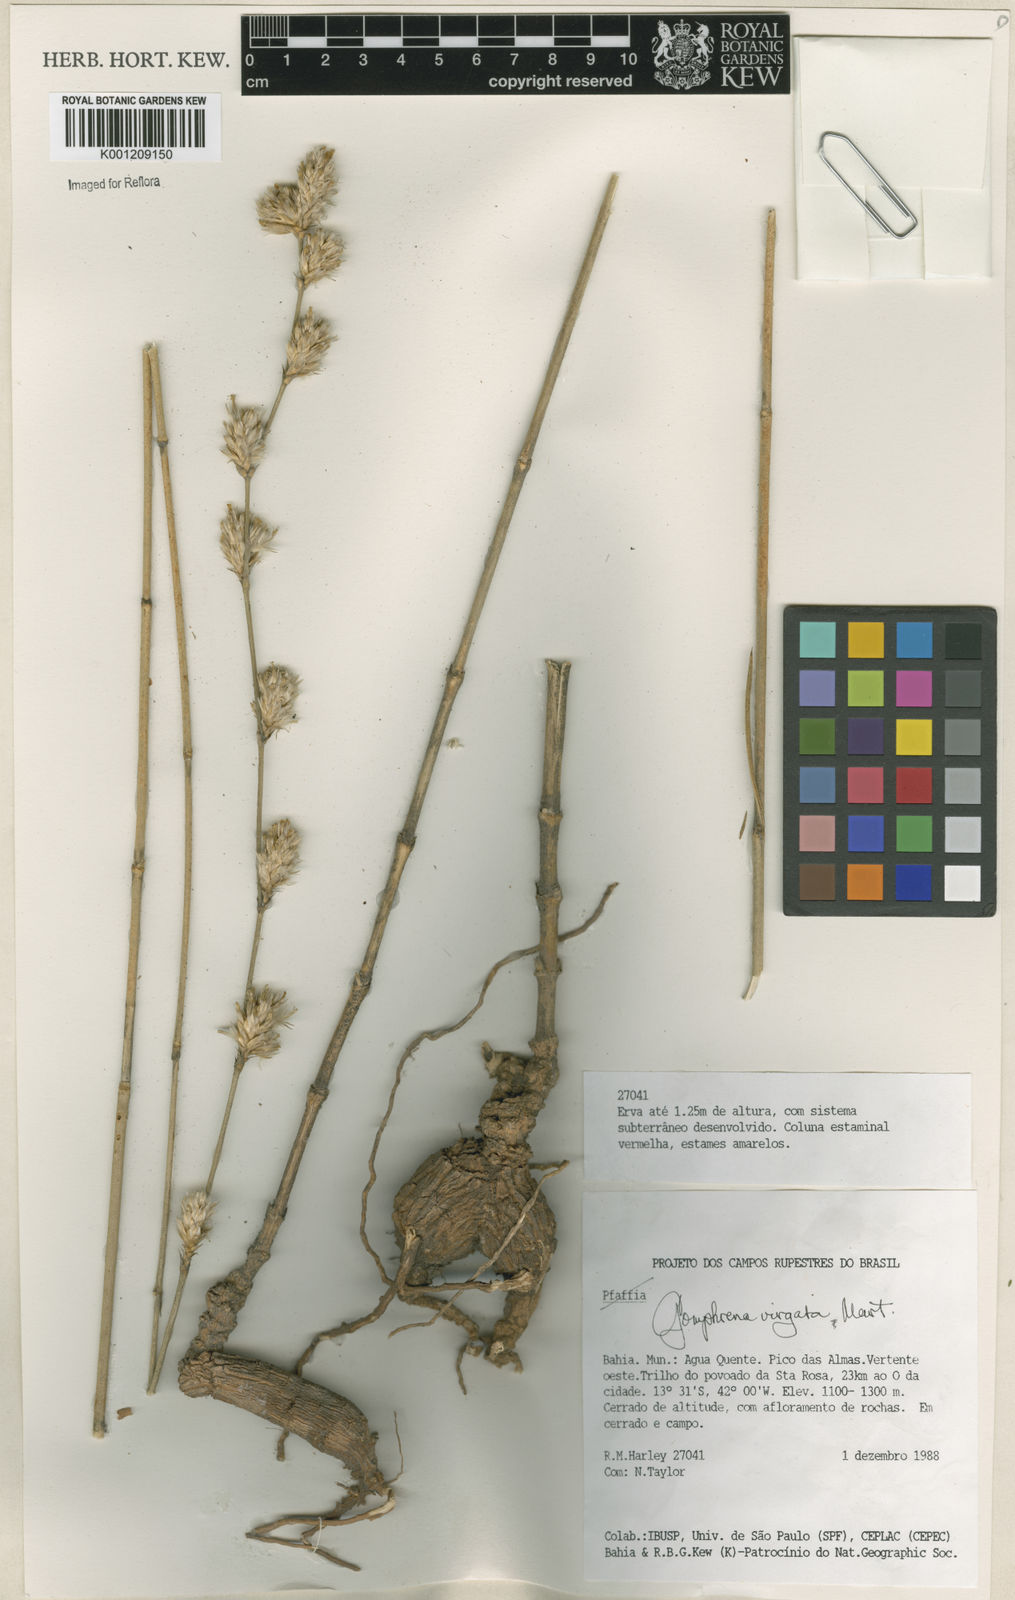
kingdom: Plantae
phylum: Tracheophyta
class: Magnoliopsida
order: Caryophyllales
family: Amaranthaceae
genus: Gomphrena
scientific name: Gomphrena virgata
